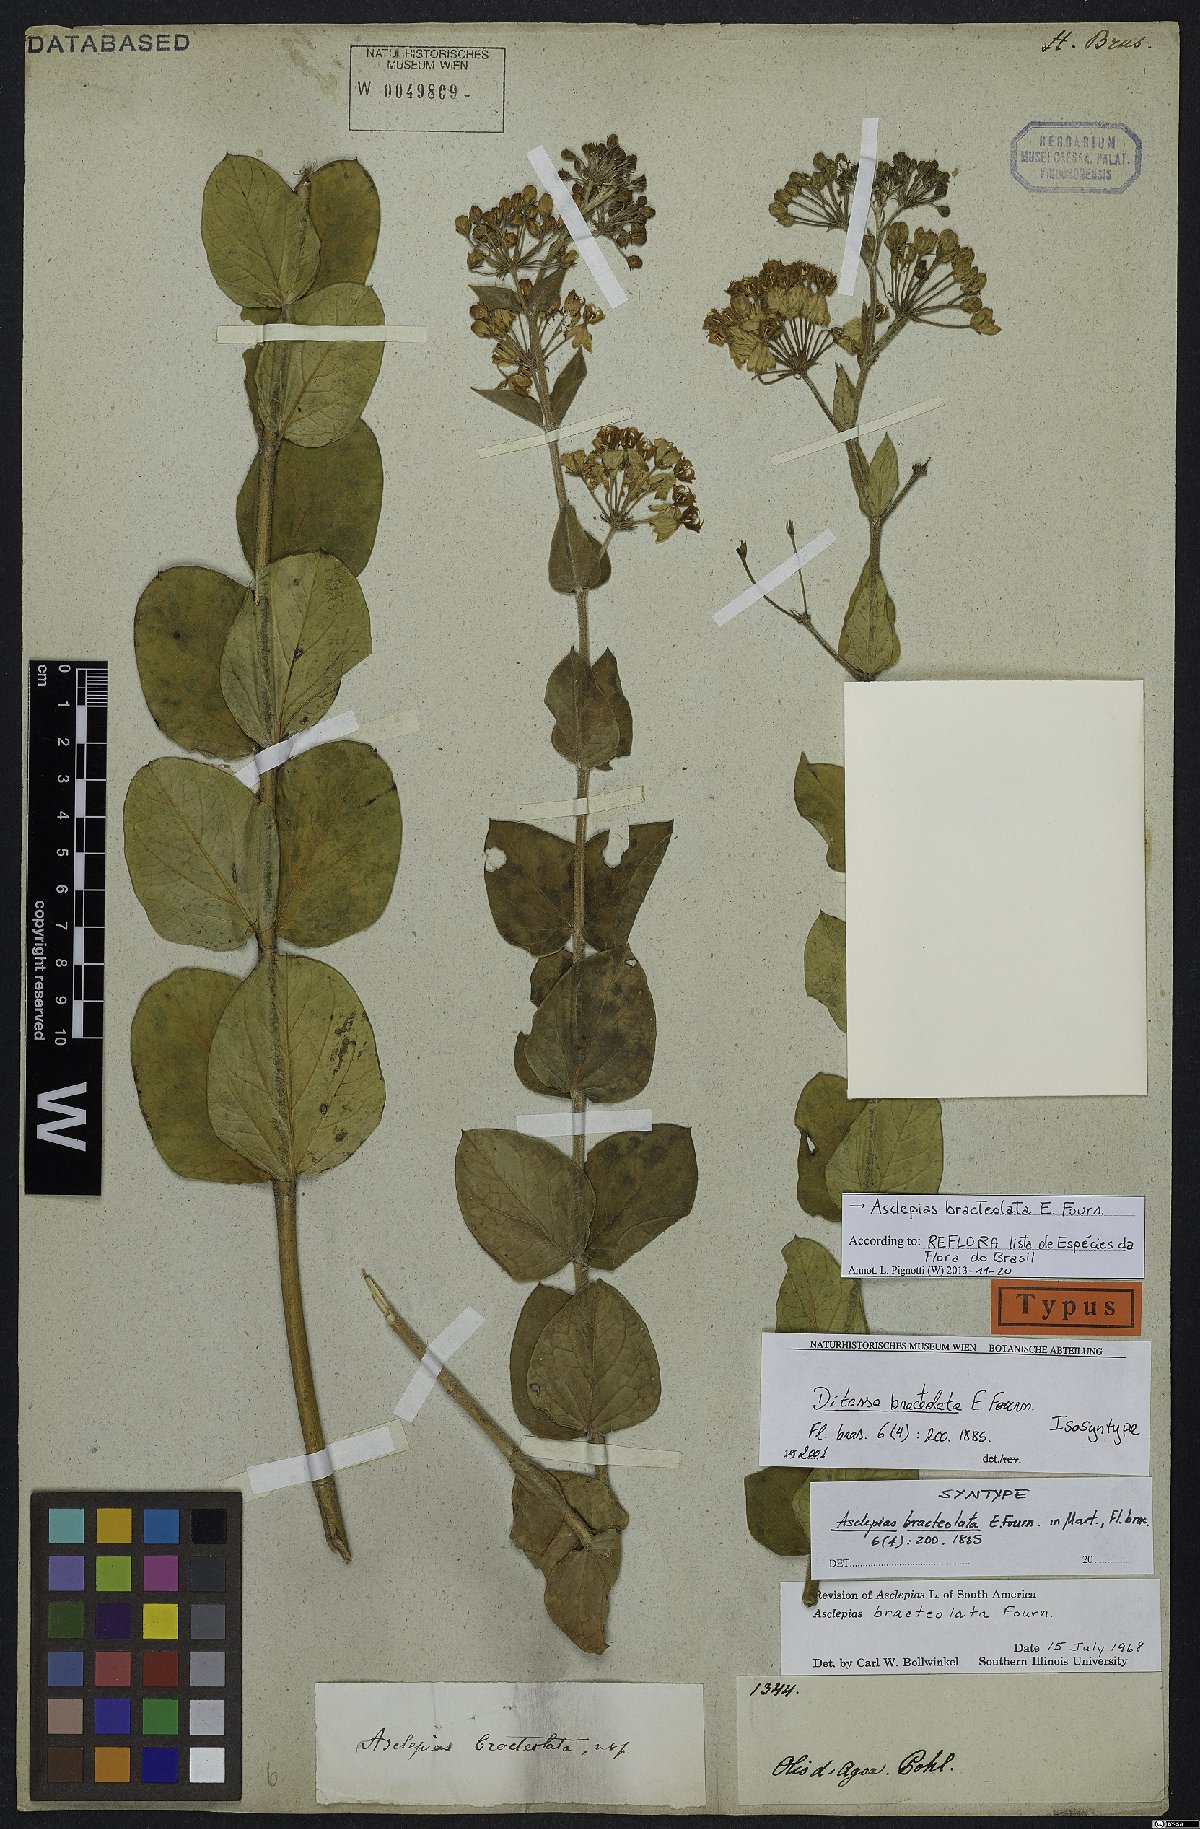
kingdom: Plantae
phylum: Tracheophyta
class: Magnoliopsida
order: Gentianales
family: Apocynaceae
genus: Asclepias
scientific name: Asclepias bracteolata
